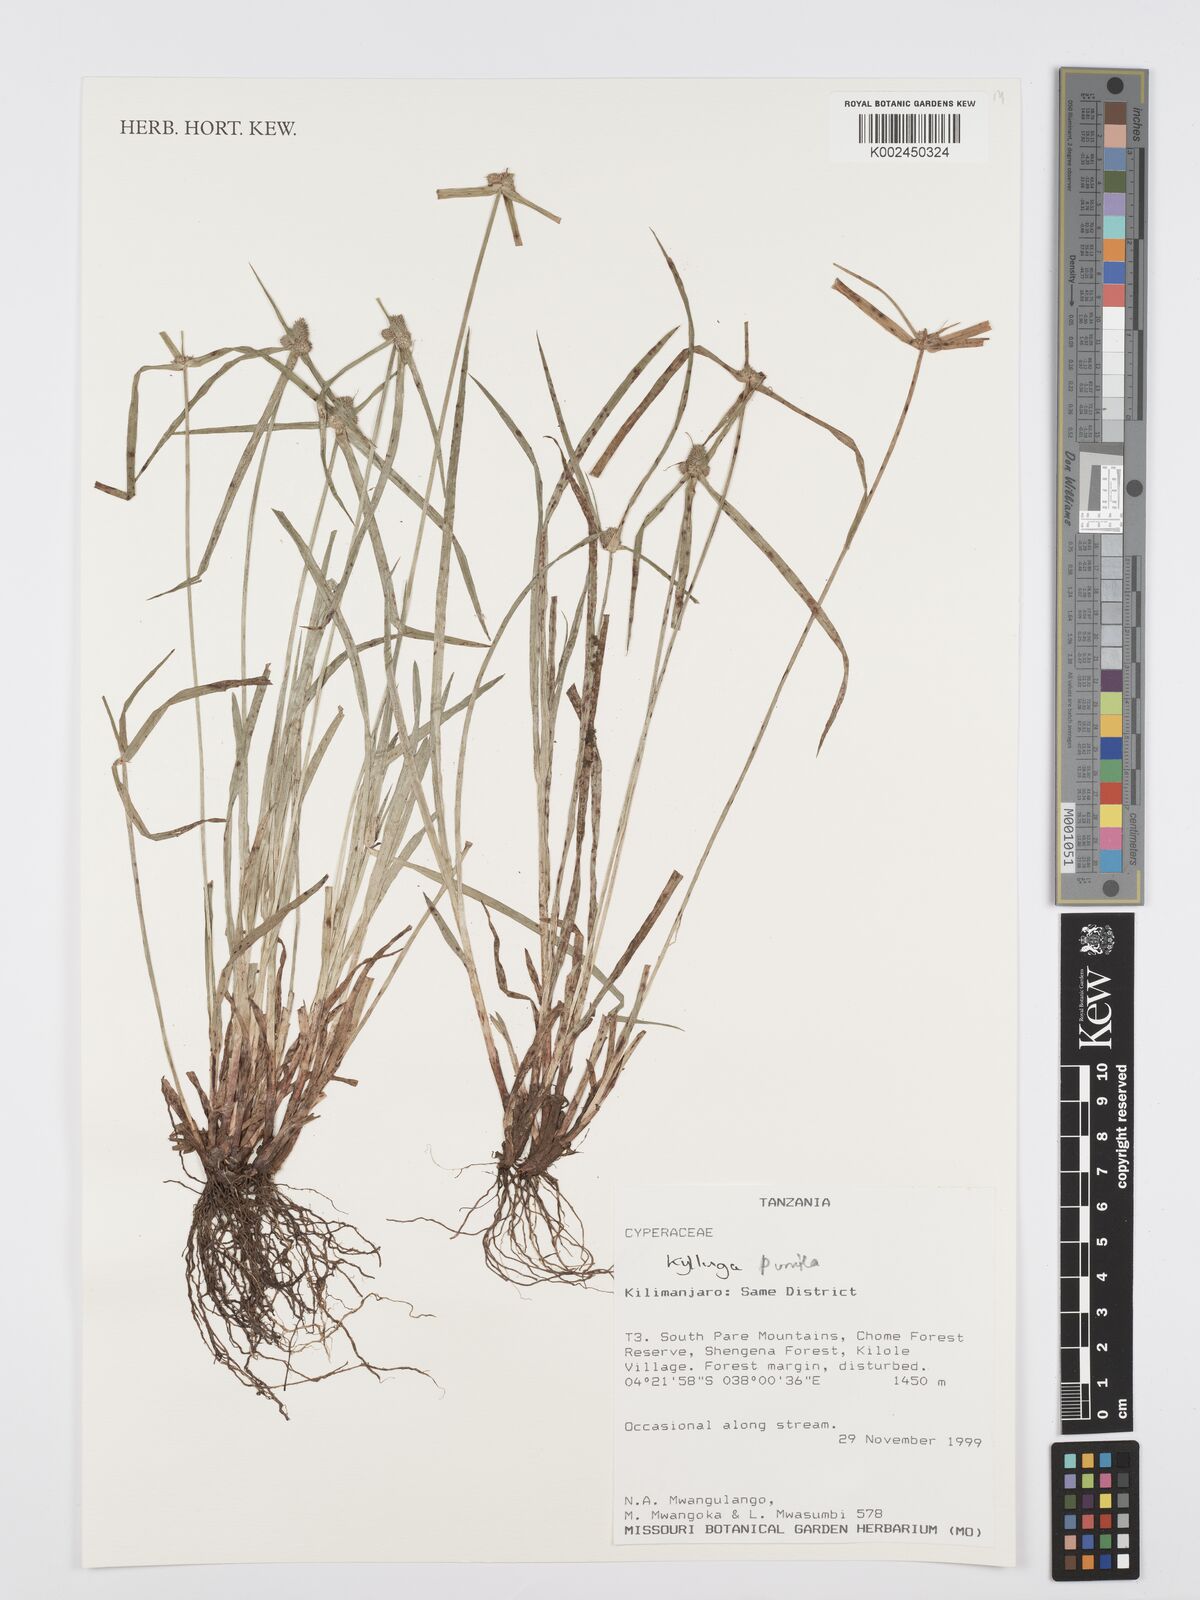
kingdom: Plantae
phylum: Tracheophyta
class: Liliopsida
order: Poales
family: Cyperaceae
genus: Cyperus
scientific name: Cyperus
